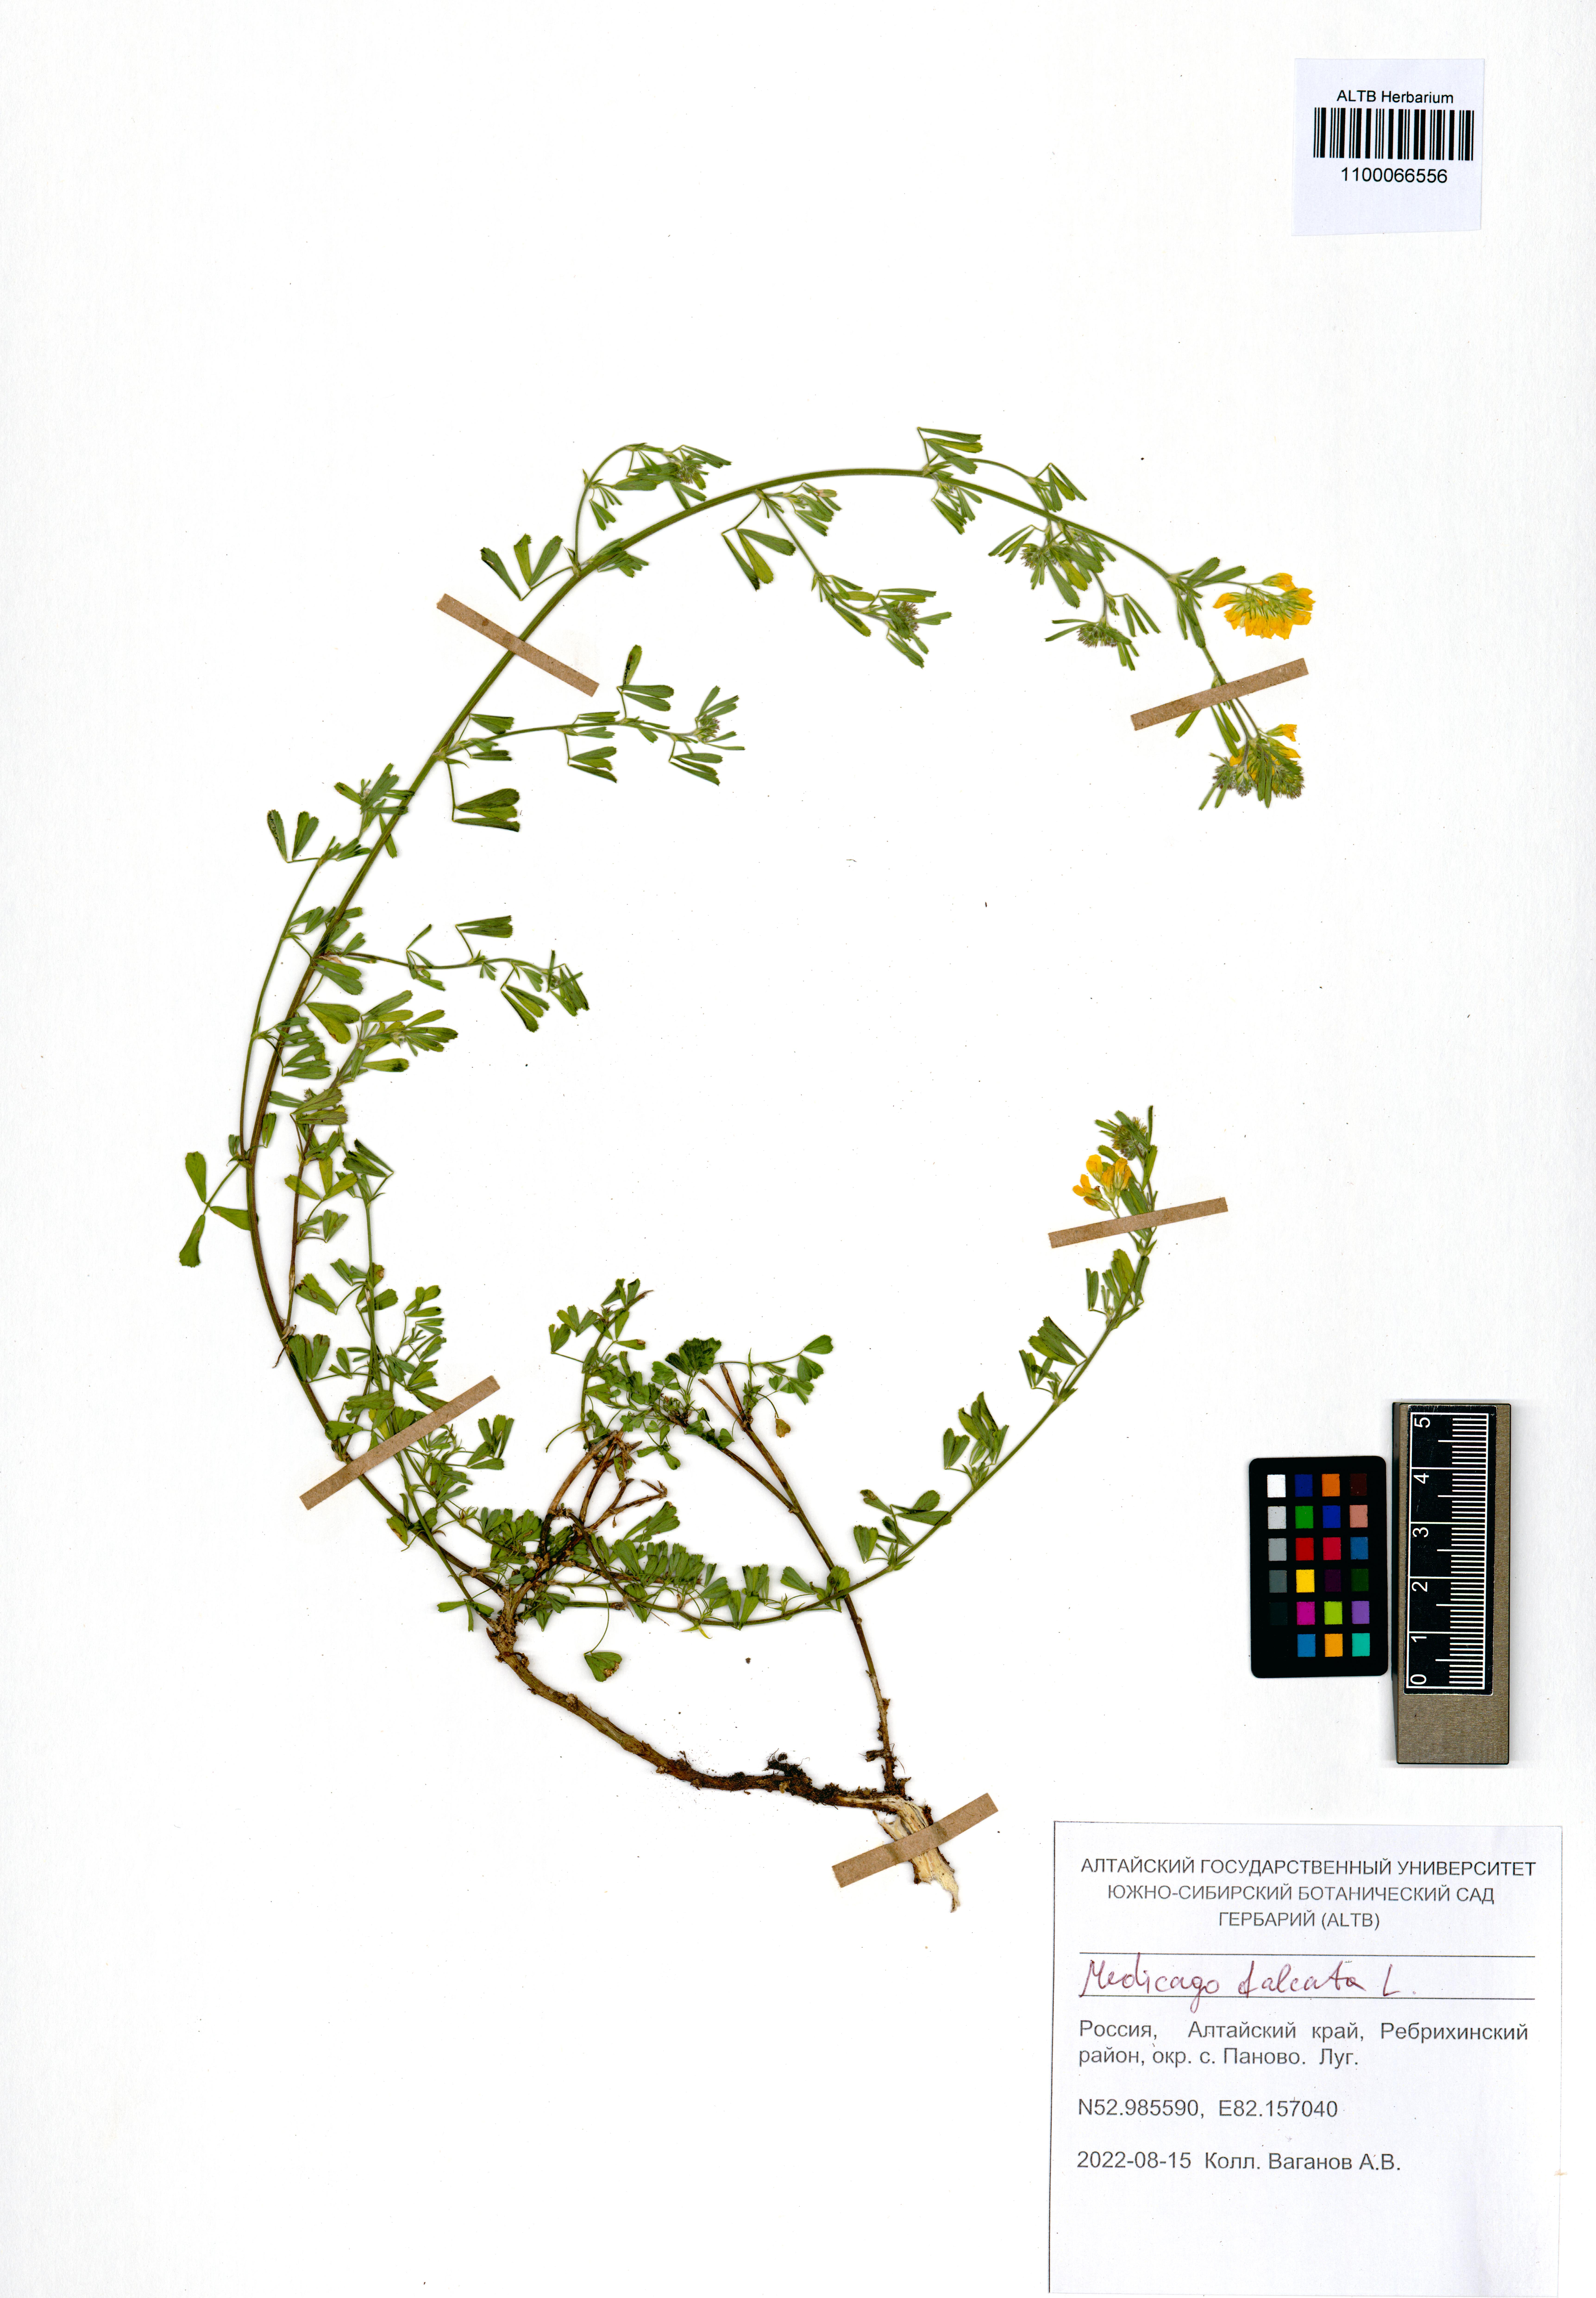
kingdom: Plantae
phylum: Tracheophyta
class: Magnoliopsida
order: Fabales
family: Fabaceae
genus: Medicago
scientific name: Medicago falcata
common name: Sickle medick
